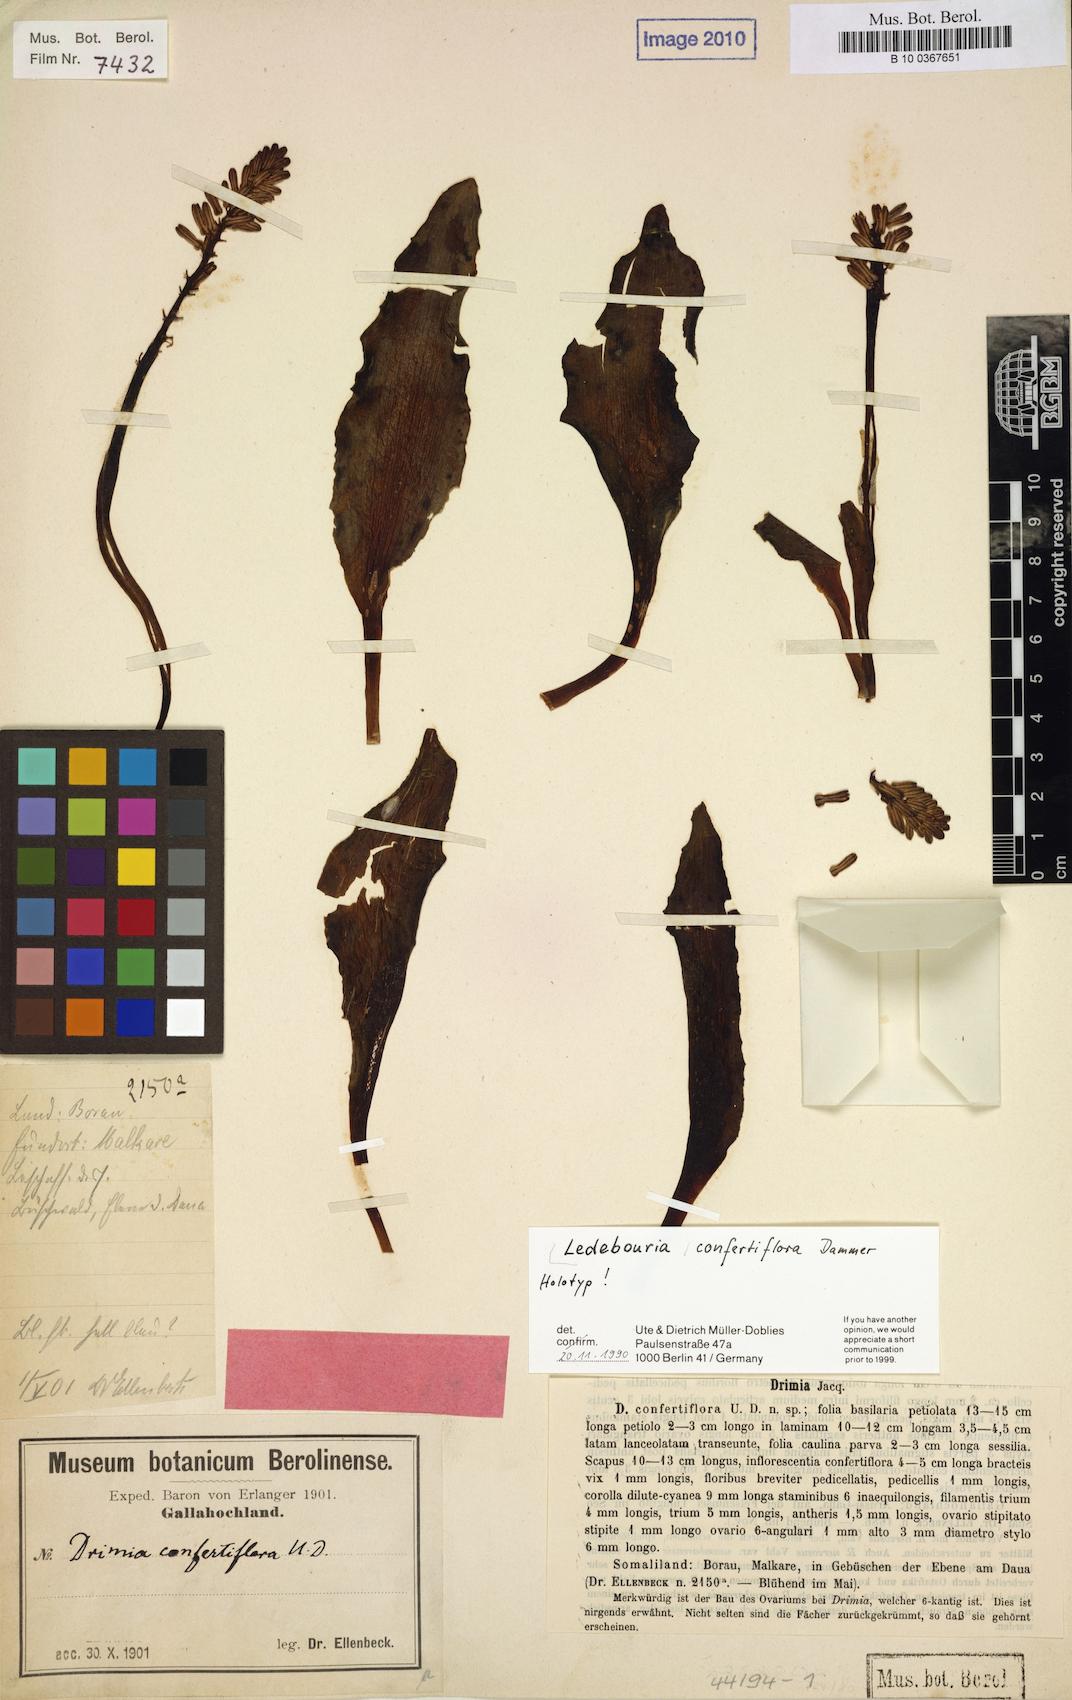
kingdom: Plantae
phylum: Tracheophyta
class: Liliopsida
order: Asparagales
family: Asparagaceae
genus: Ledebouria
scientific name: Ledebouria somaliensis
